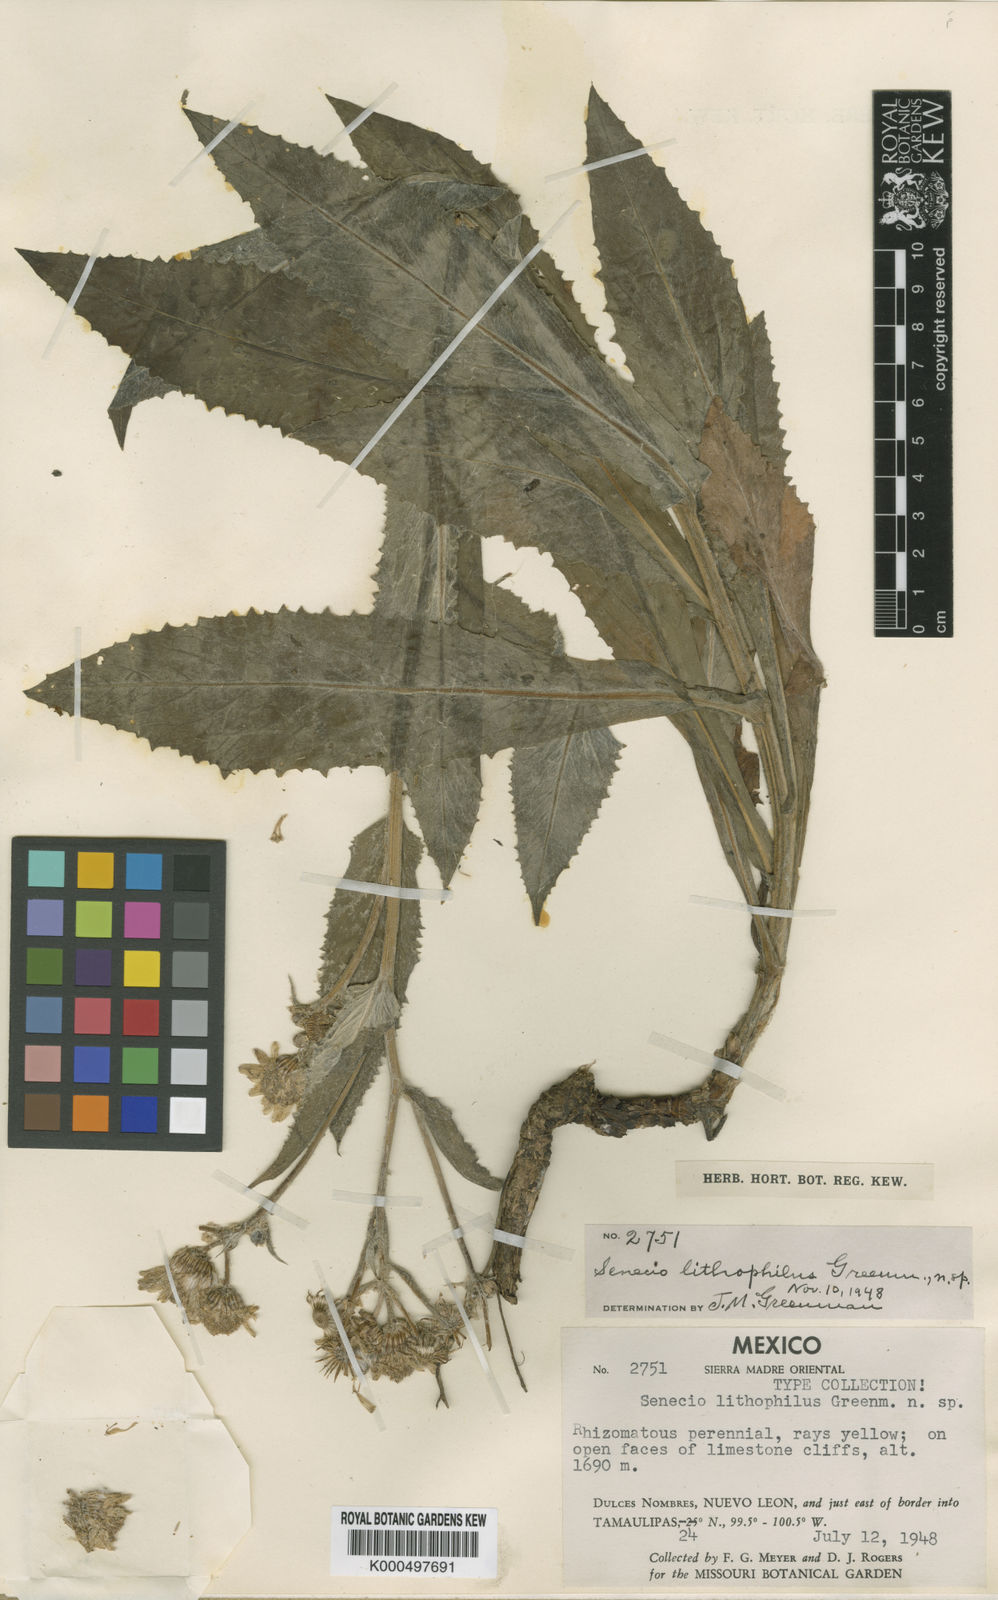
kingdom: Plantae
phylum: Tracheophyta
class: Magnoliopsida
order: Asterales
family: Asteraceae
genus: Senecio
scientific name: Senecio lithophilus
